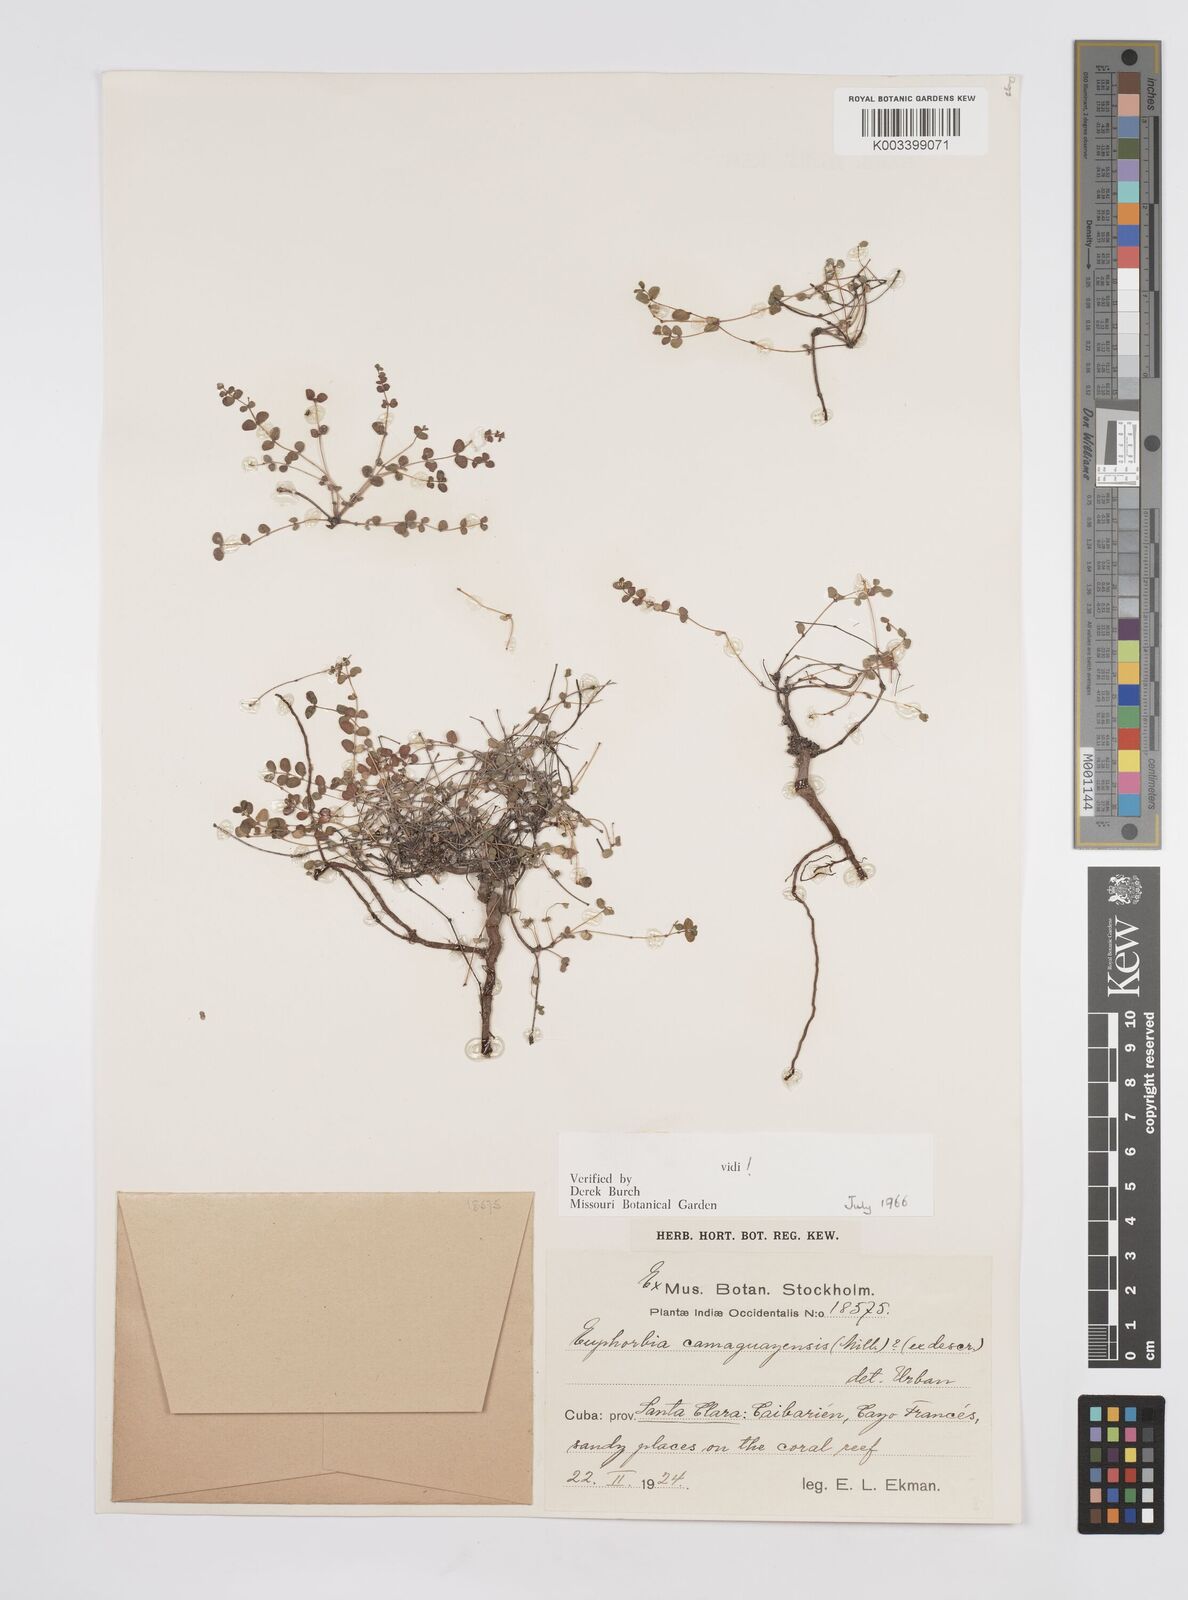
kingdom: Plantae
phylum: Tracheophyta
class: Magnoliopsida
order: Malpighiales
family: Euphorbiaceae
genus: Euphorbia
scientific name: Euphorbia camagueyensis
